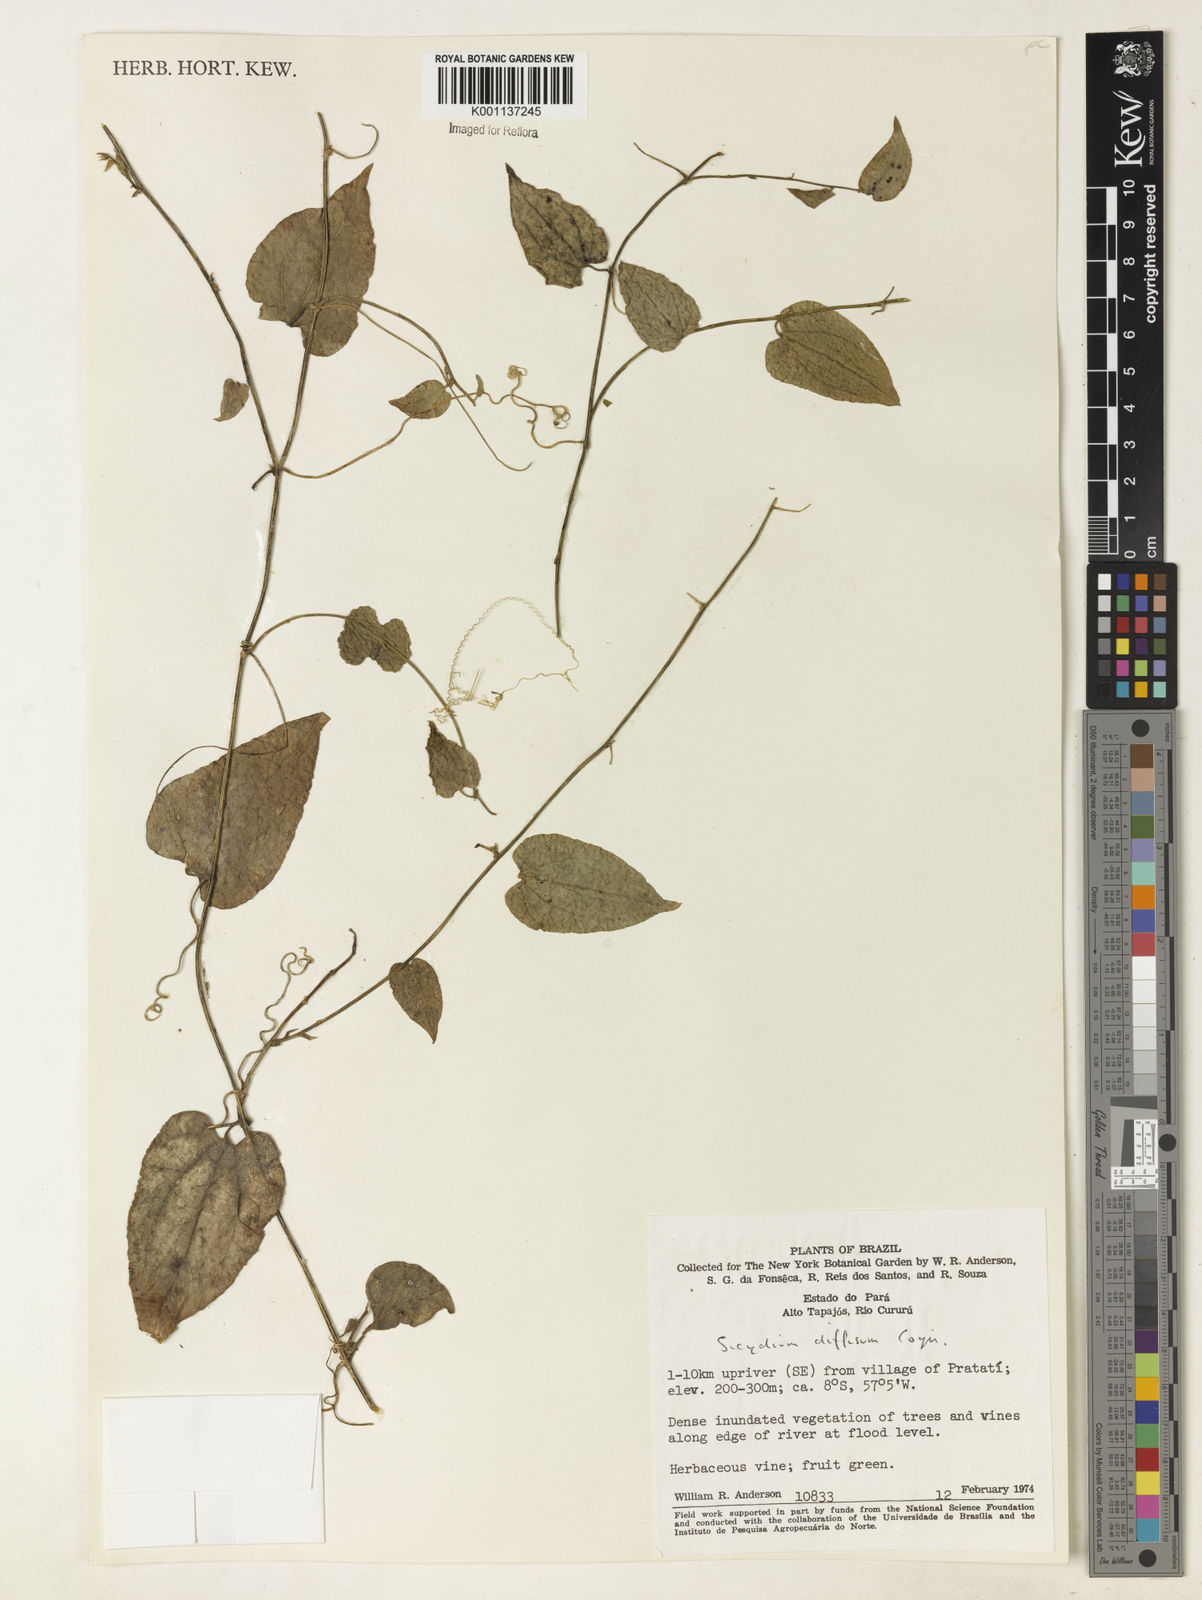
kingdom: Plantae
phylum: Tracheophyta
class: Magnoliopsida
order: Cucurbitales
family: Cucurbitaceae
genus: Sicydium
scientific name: Sicydium diffusum
